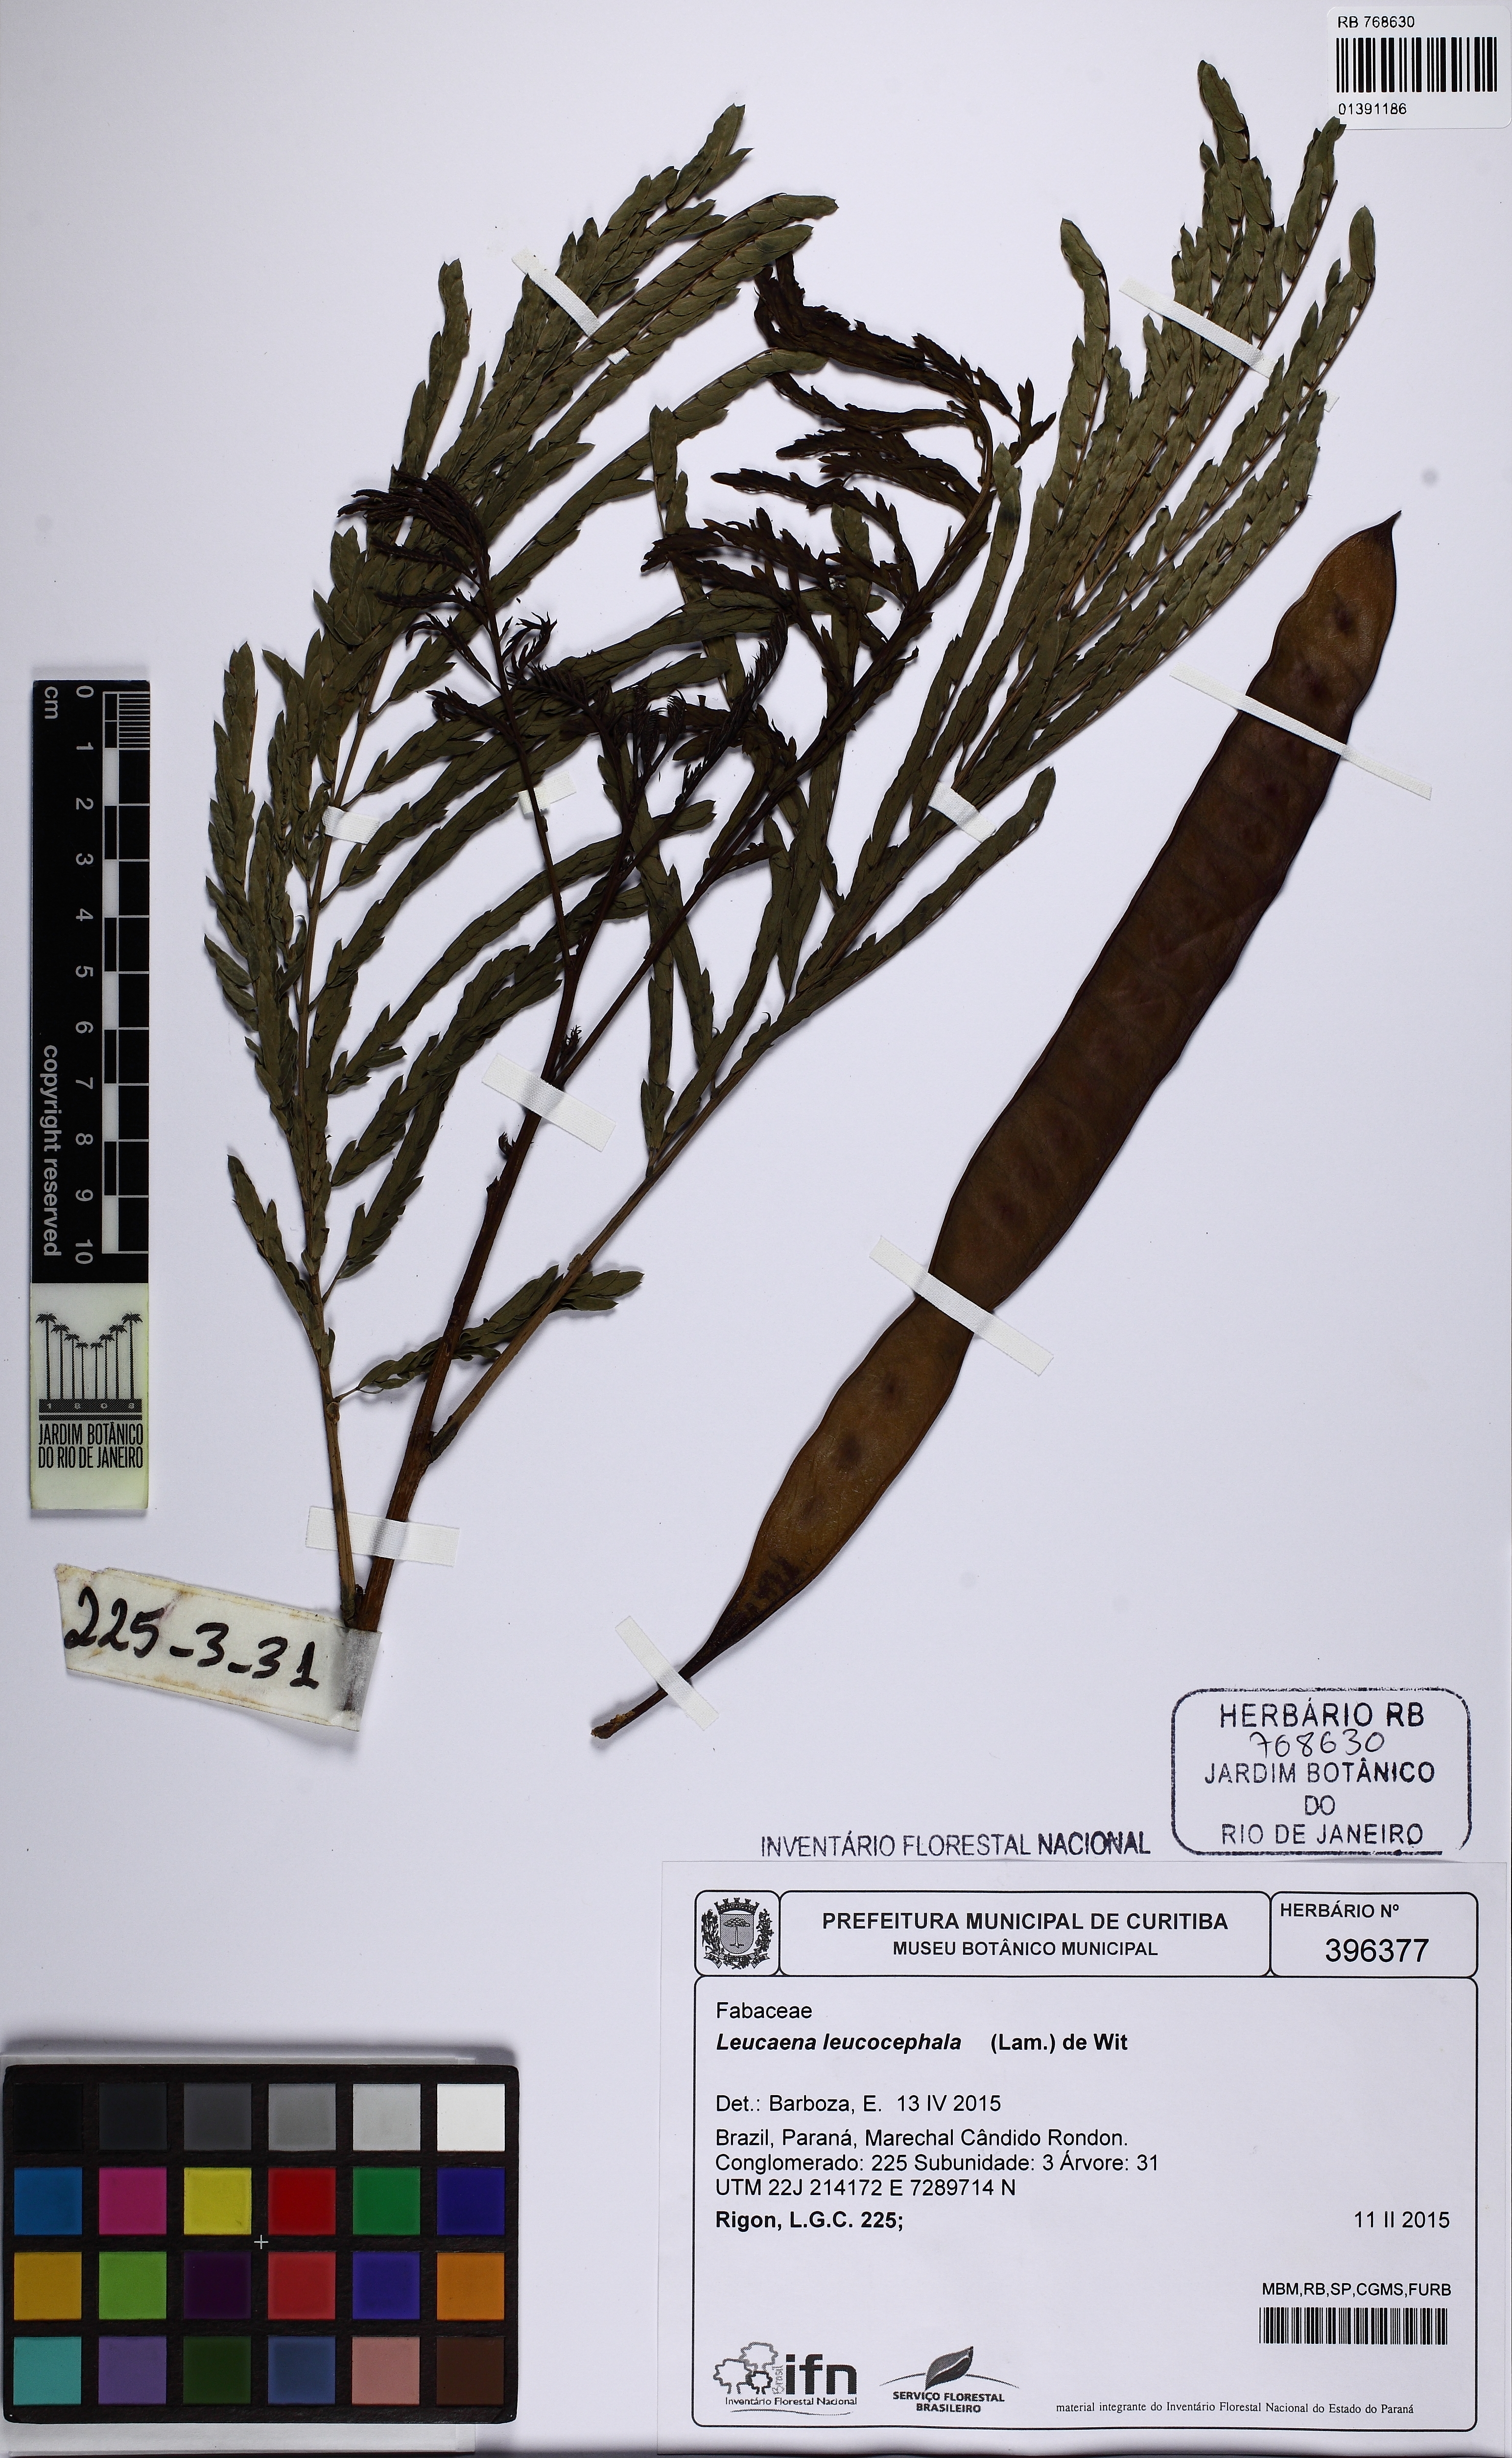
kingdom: Plantae
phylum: Tracheophyta
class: Magnoliopsida
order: Fabales
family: Fabaceae
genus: Leucaena
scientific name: Leucaena leucocephala
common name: White leadtree
